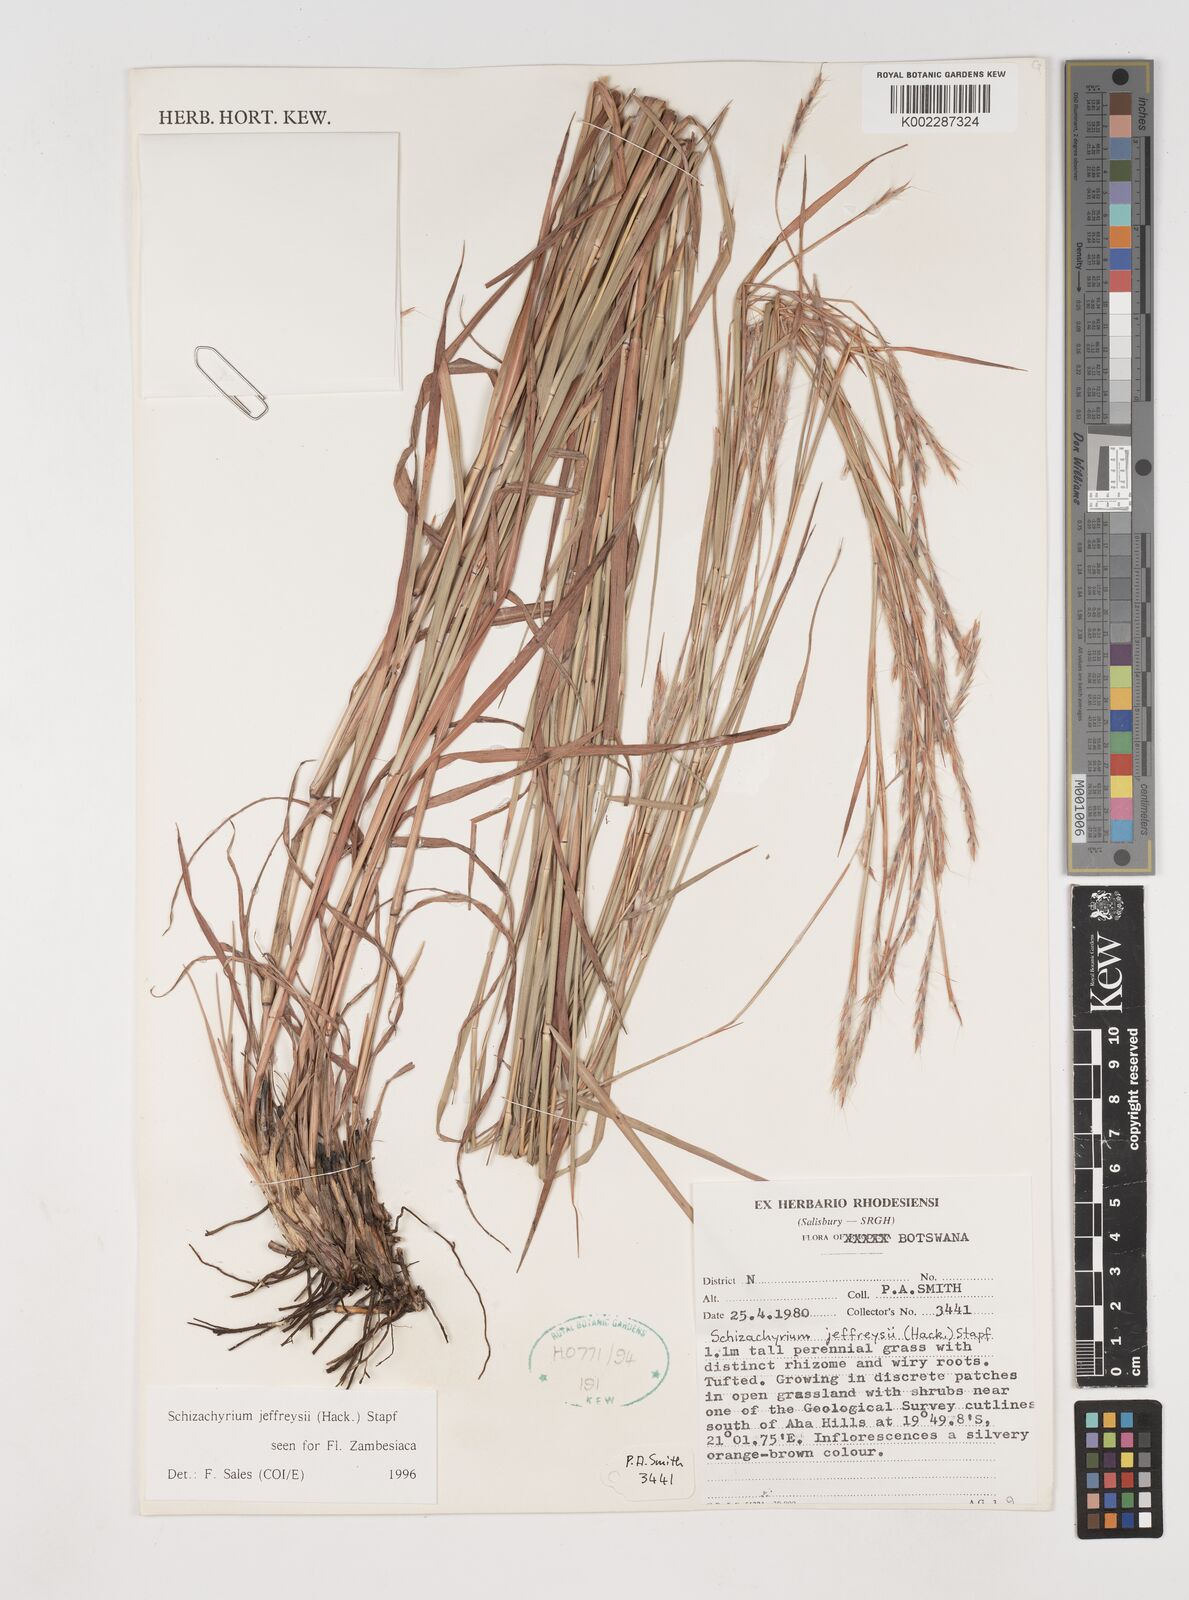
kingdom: Plantae
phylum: Tracheophyta
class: Liliopsida
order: Poales
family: Poaceae
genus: Schizachyrium
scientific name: Schizachyrium jeffreysii
